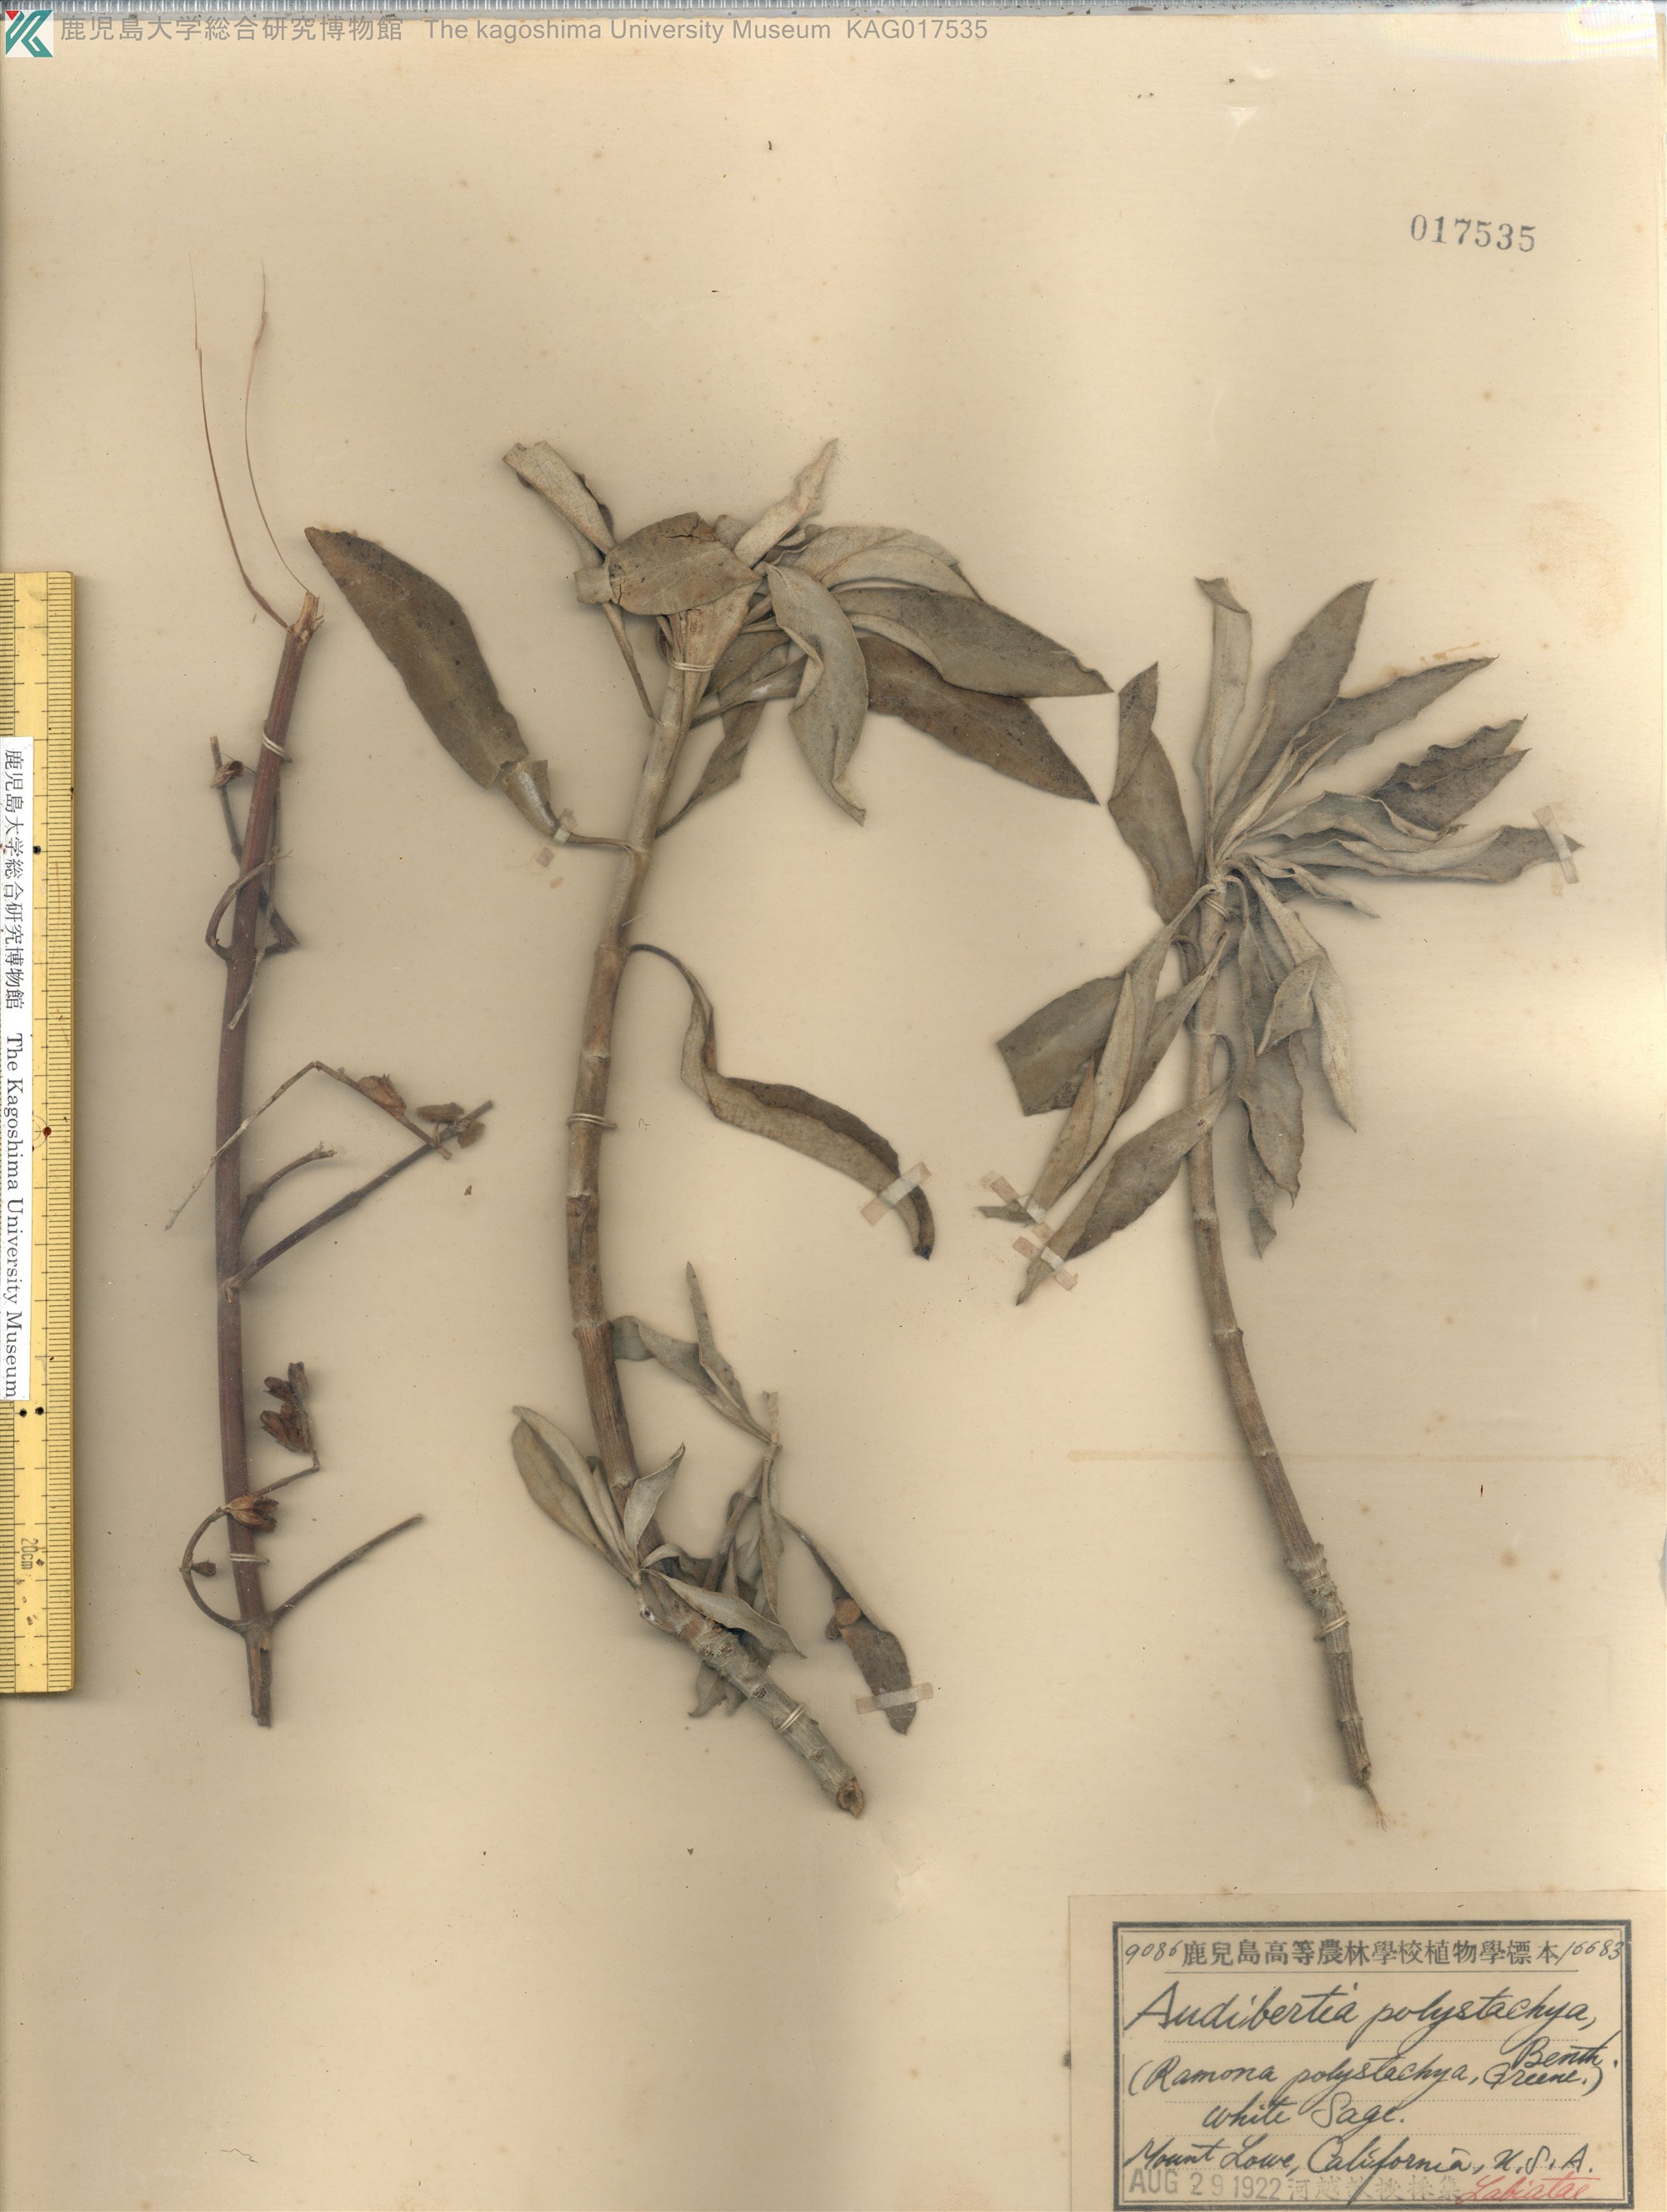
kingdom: Plantae
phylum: Tracheophyta
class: Magnoliopsida
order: Lamiales
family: Lamiaceae
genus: Salvia
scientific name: Salvia apiana
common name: White sage
